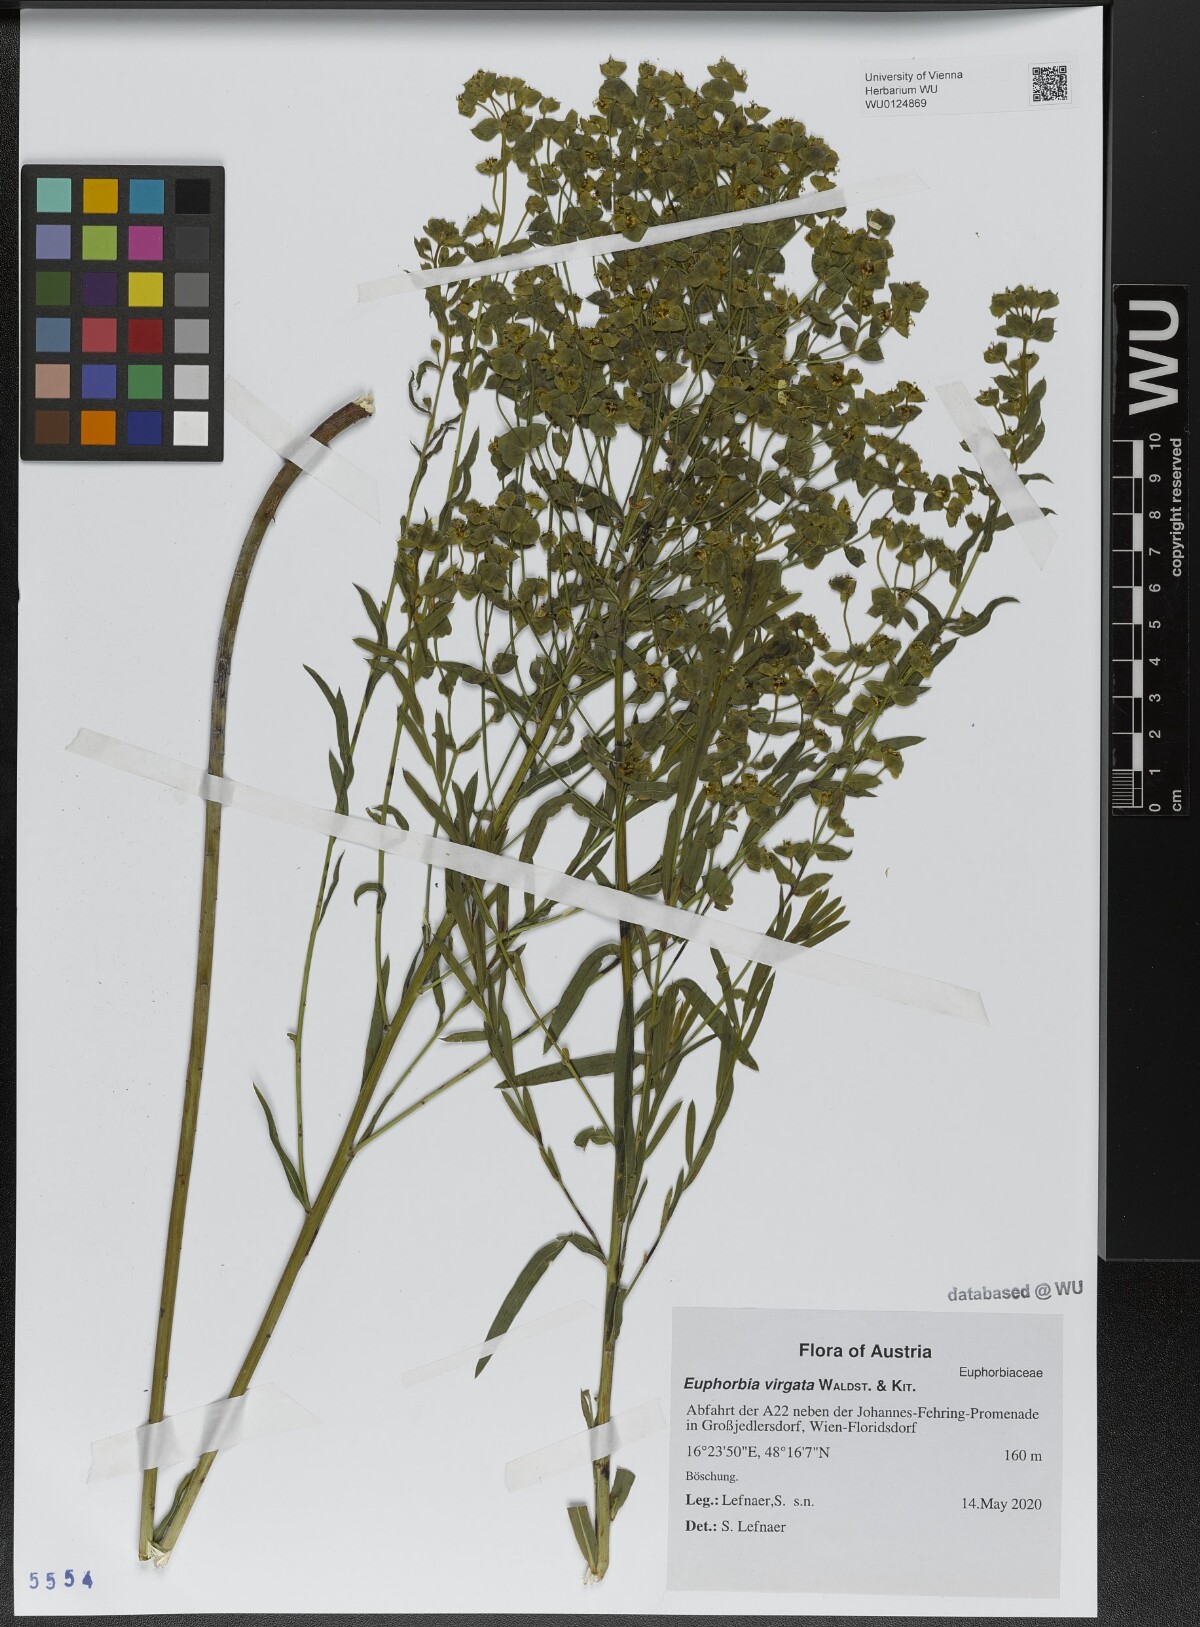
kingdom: Plantae
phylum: Tracheophyta
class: Magnoliopsida
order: Malpighiales
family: Euphorbiaceae
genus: Euphorbia
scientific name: Euphorbia virgata
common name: Leafy spurge
